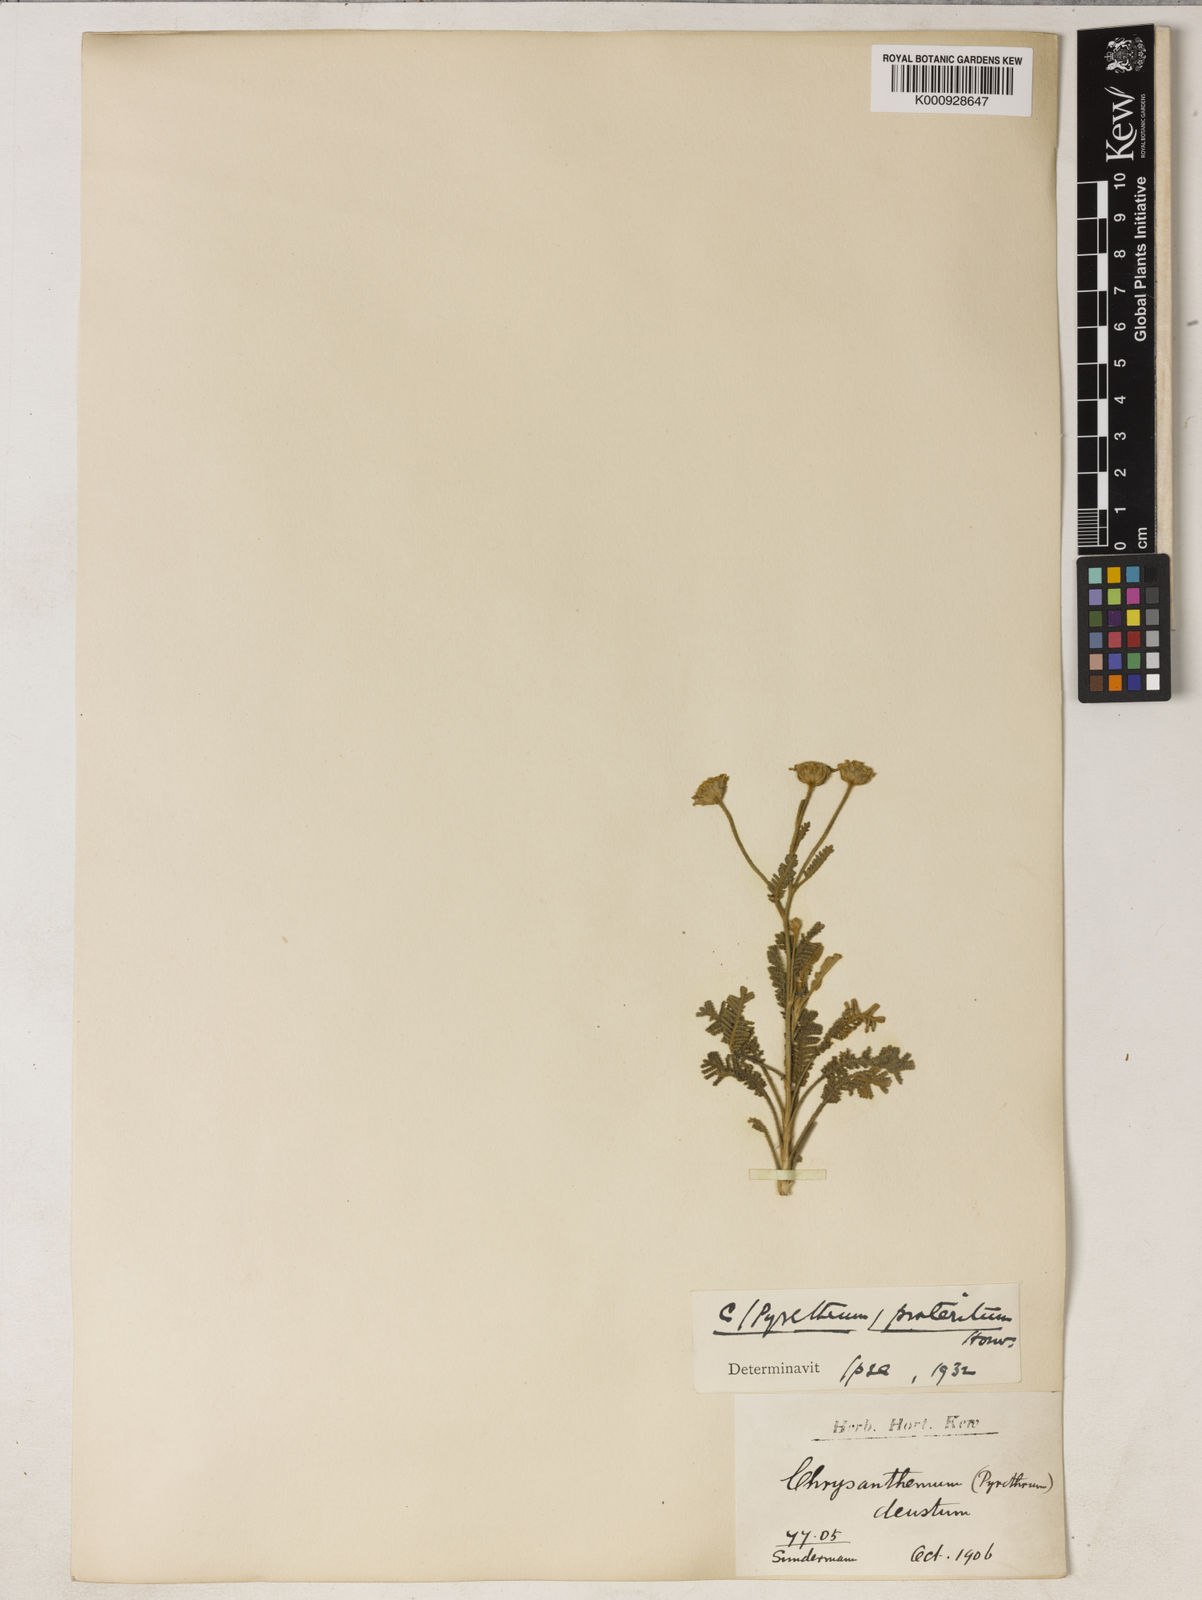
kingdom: Plantae
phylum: Tracheophyta
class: Magnoliopsida
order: Asterales
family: Asteraceae
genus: Tanacetum
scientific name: Tanacetum praeteritum
